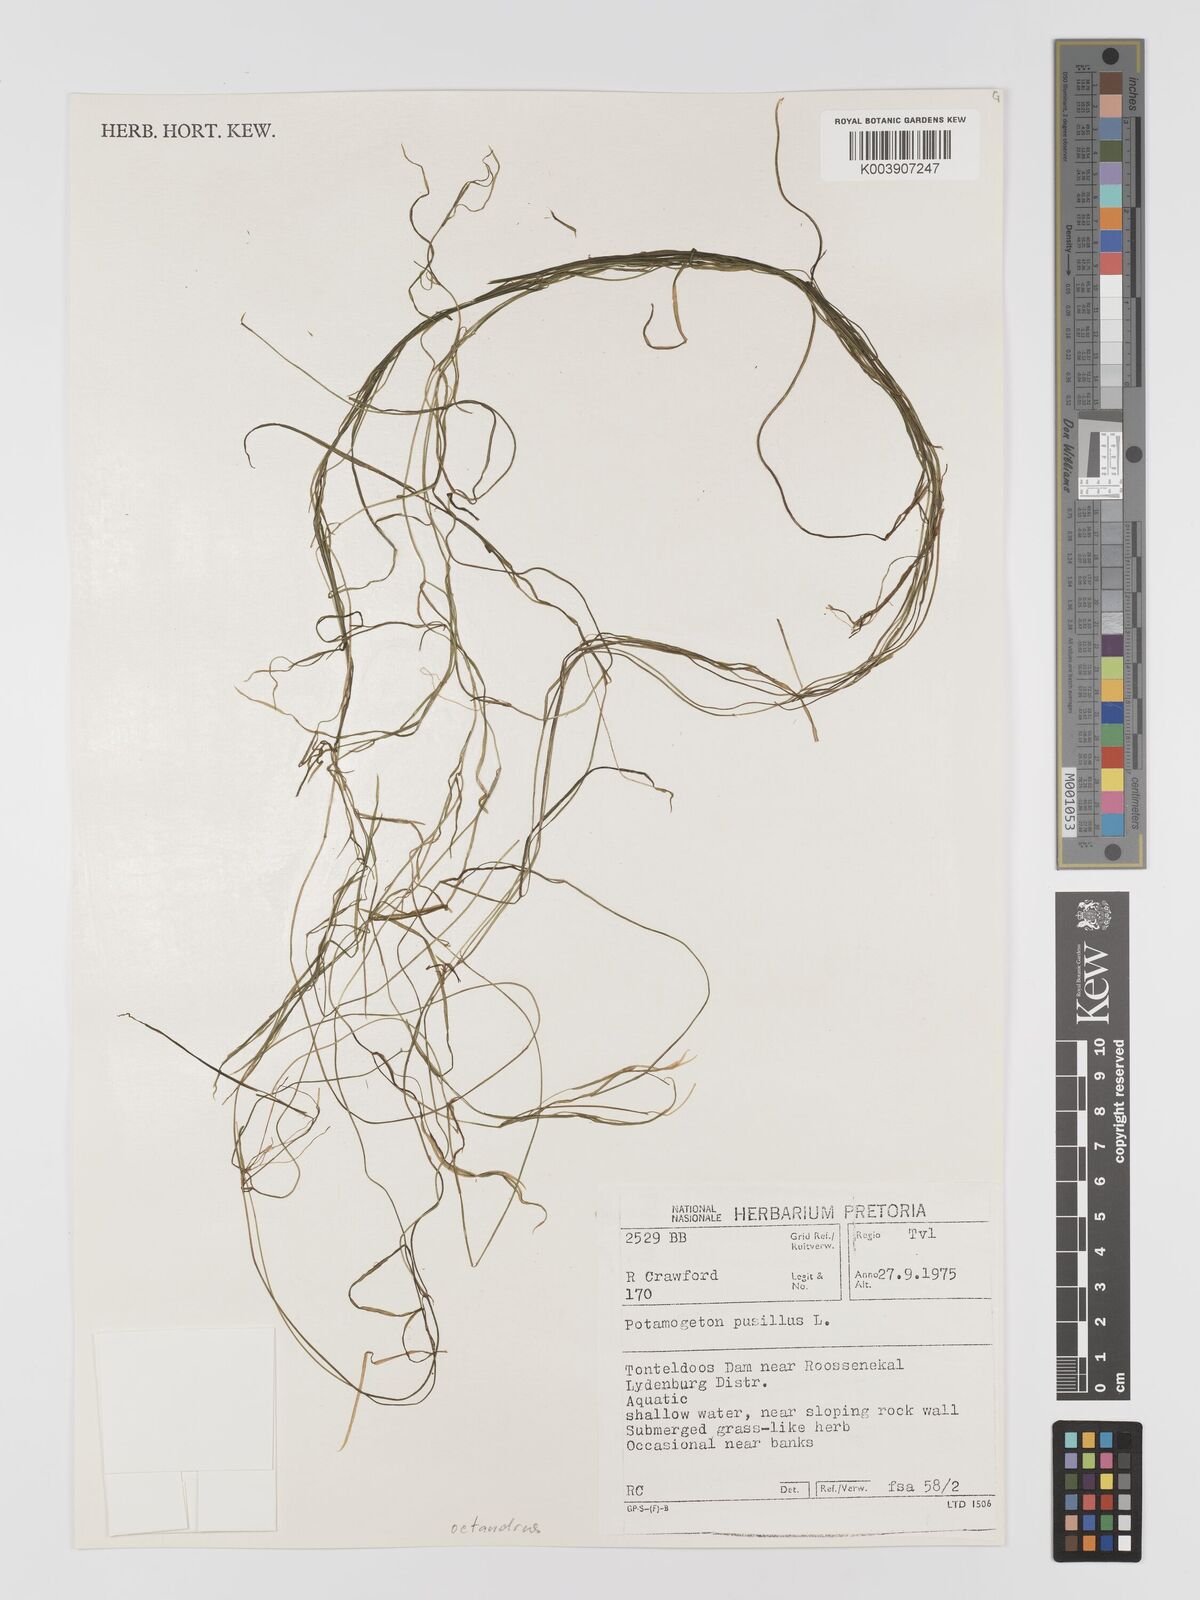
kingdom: Plantae
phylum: Tracheophyta
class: Liliopsida
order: Alismatales
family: Potamogetonaceae
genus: Potamogeton
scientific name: Potamogeton octandrus
